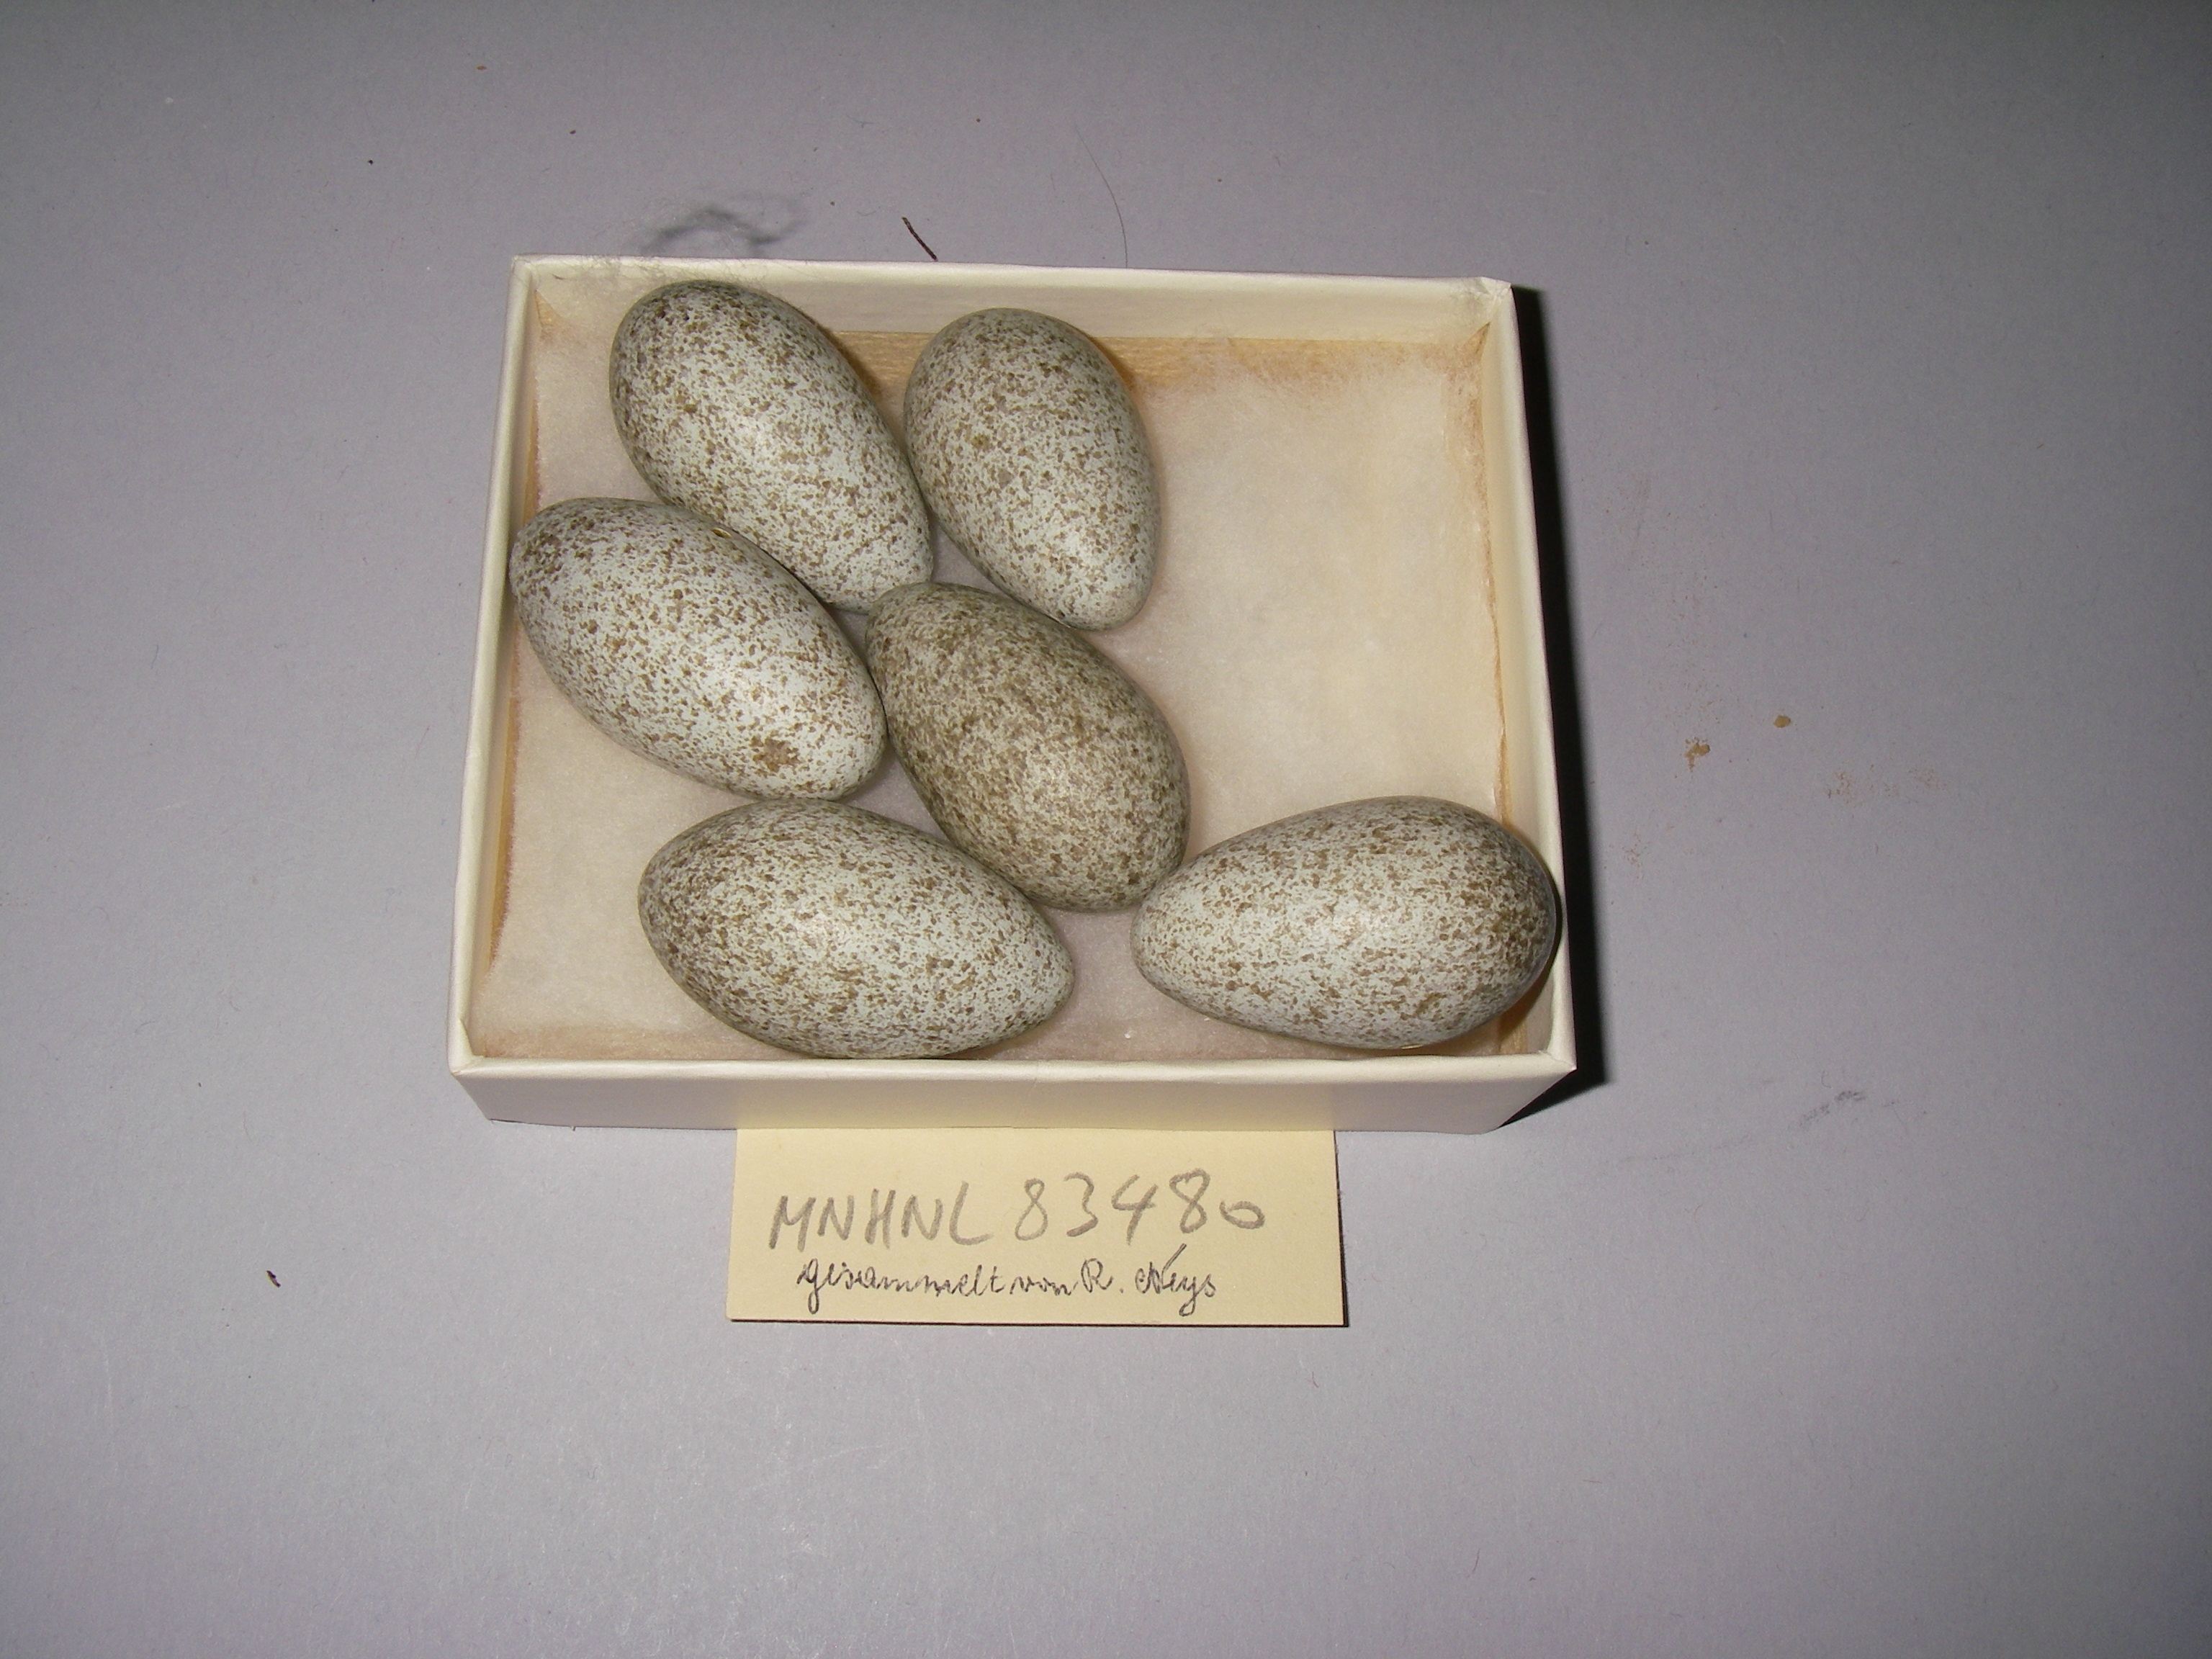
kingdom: Animalia
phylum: Chordata
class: Aves
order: Passeriformes
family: Corvidae
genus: Pica
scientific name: Pica pica
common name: Eurasian magpie
